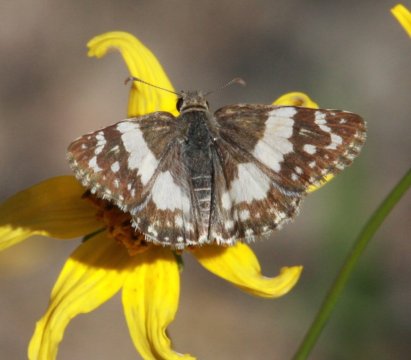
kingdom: Animalia
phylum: Arthropoda
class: Insecta
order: Lepidoptera
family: Hesperiidae
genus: Heliopyrgus
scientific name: Heliopyrgus domicella
